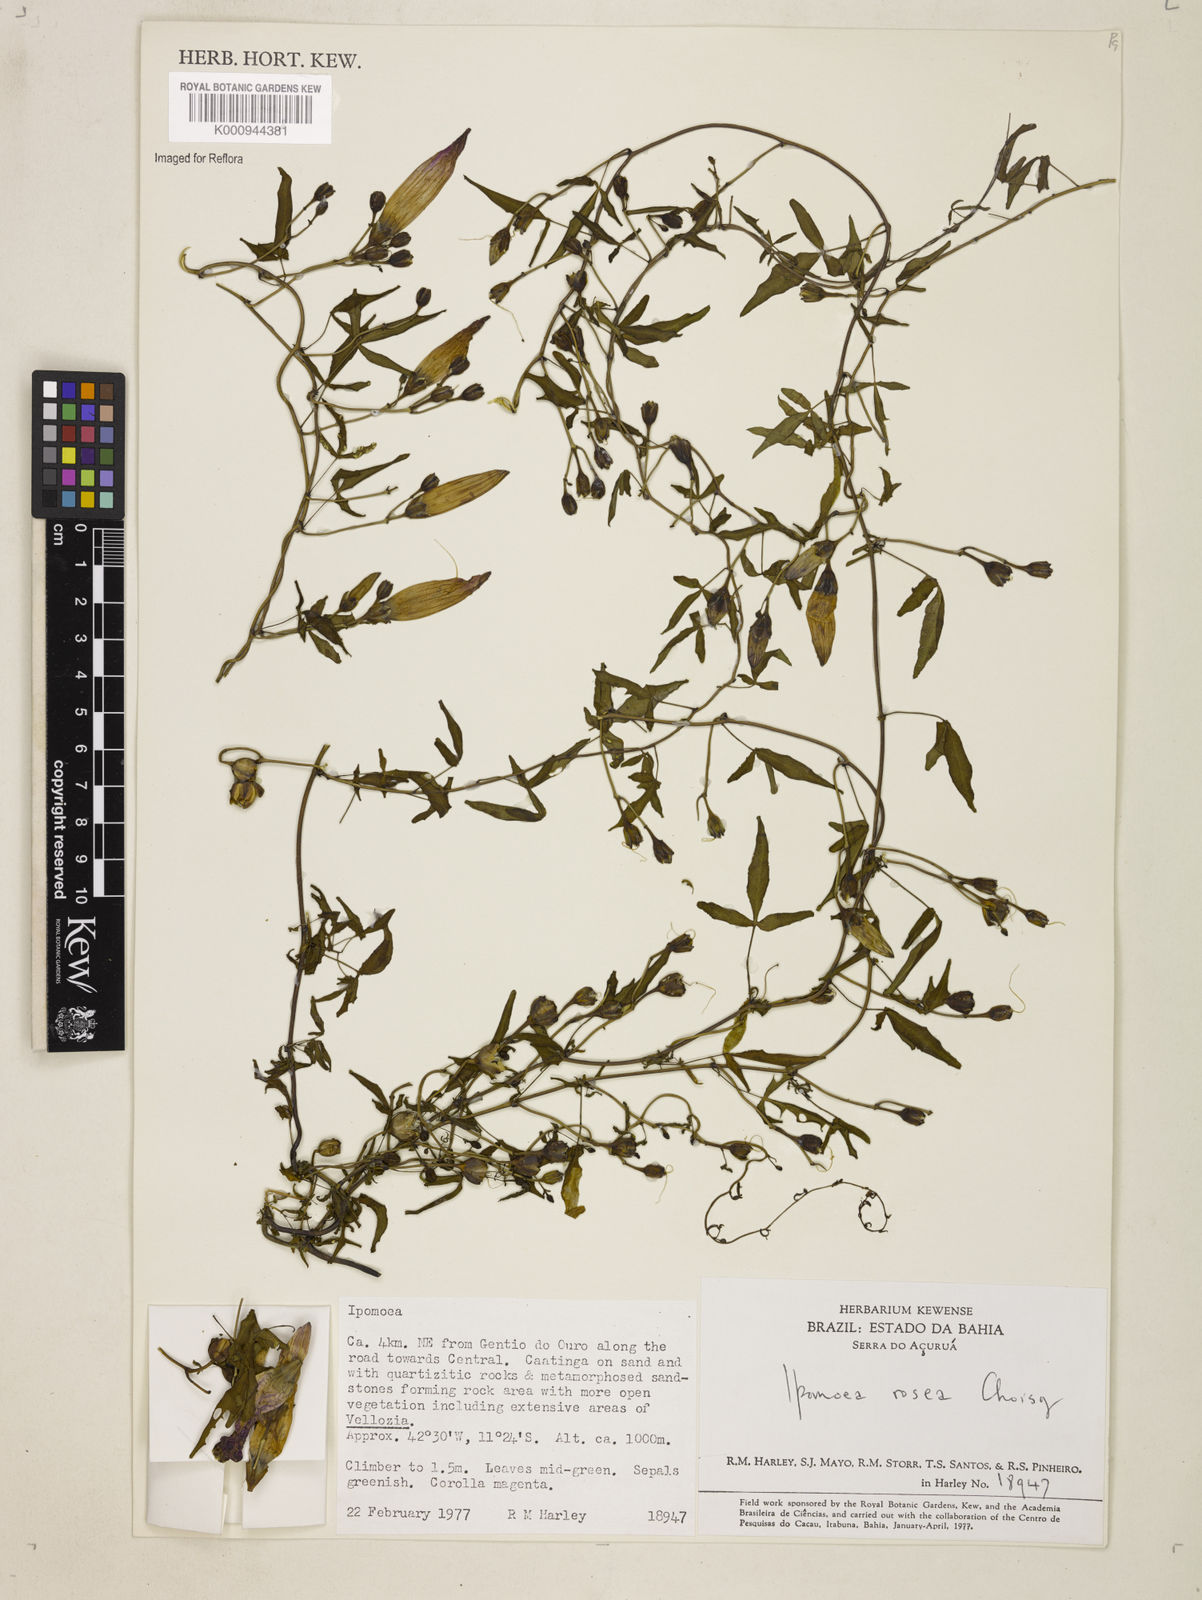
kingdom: Plantae
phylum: Tracheophyta
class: Magnoliopsida
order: Solanales
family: Convolvulaceae
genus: Ipomoea
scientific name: Ipomoea rosea
